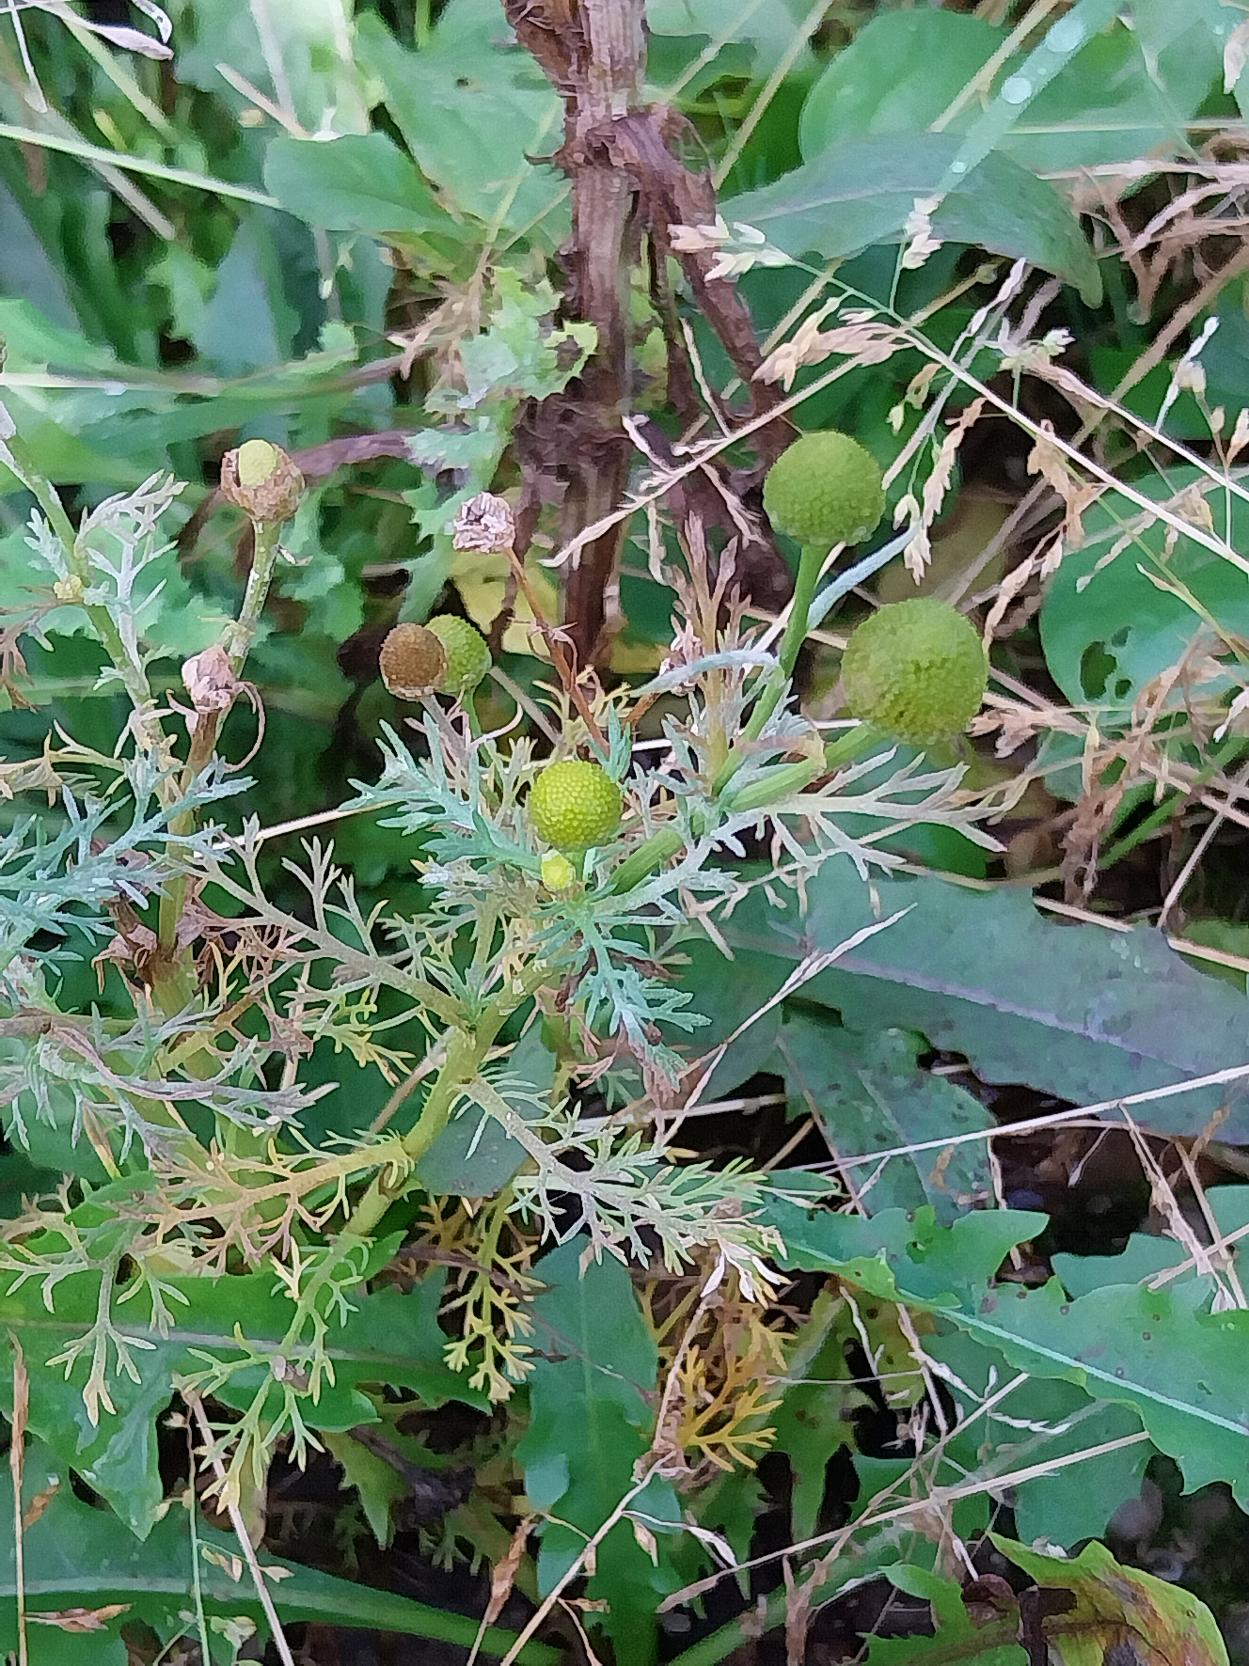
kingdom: Plantae
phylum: Tracheophyta
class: Magnoliopsida
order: Asterales
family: Asteraceae
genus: Matricaria
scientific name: Matricaria discoidea
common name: Skive-kamille
